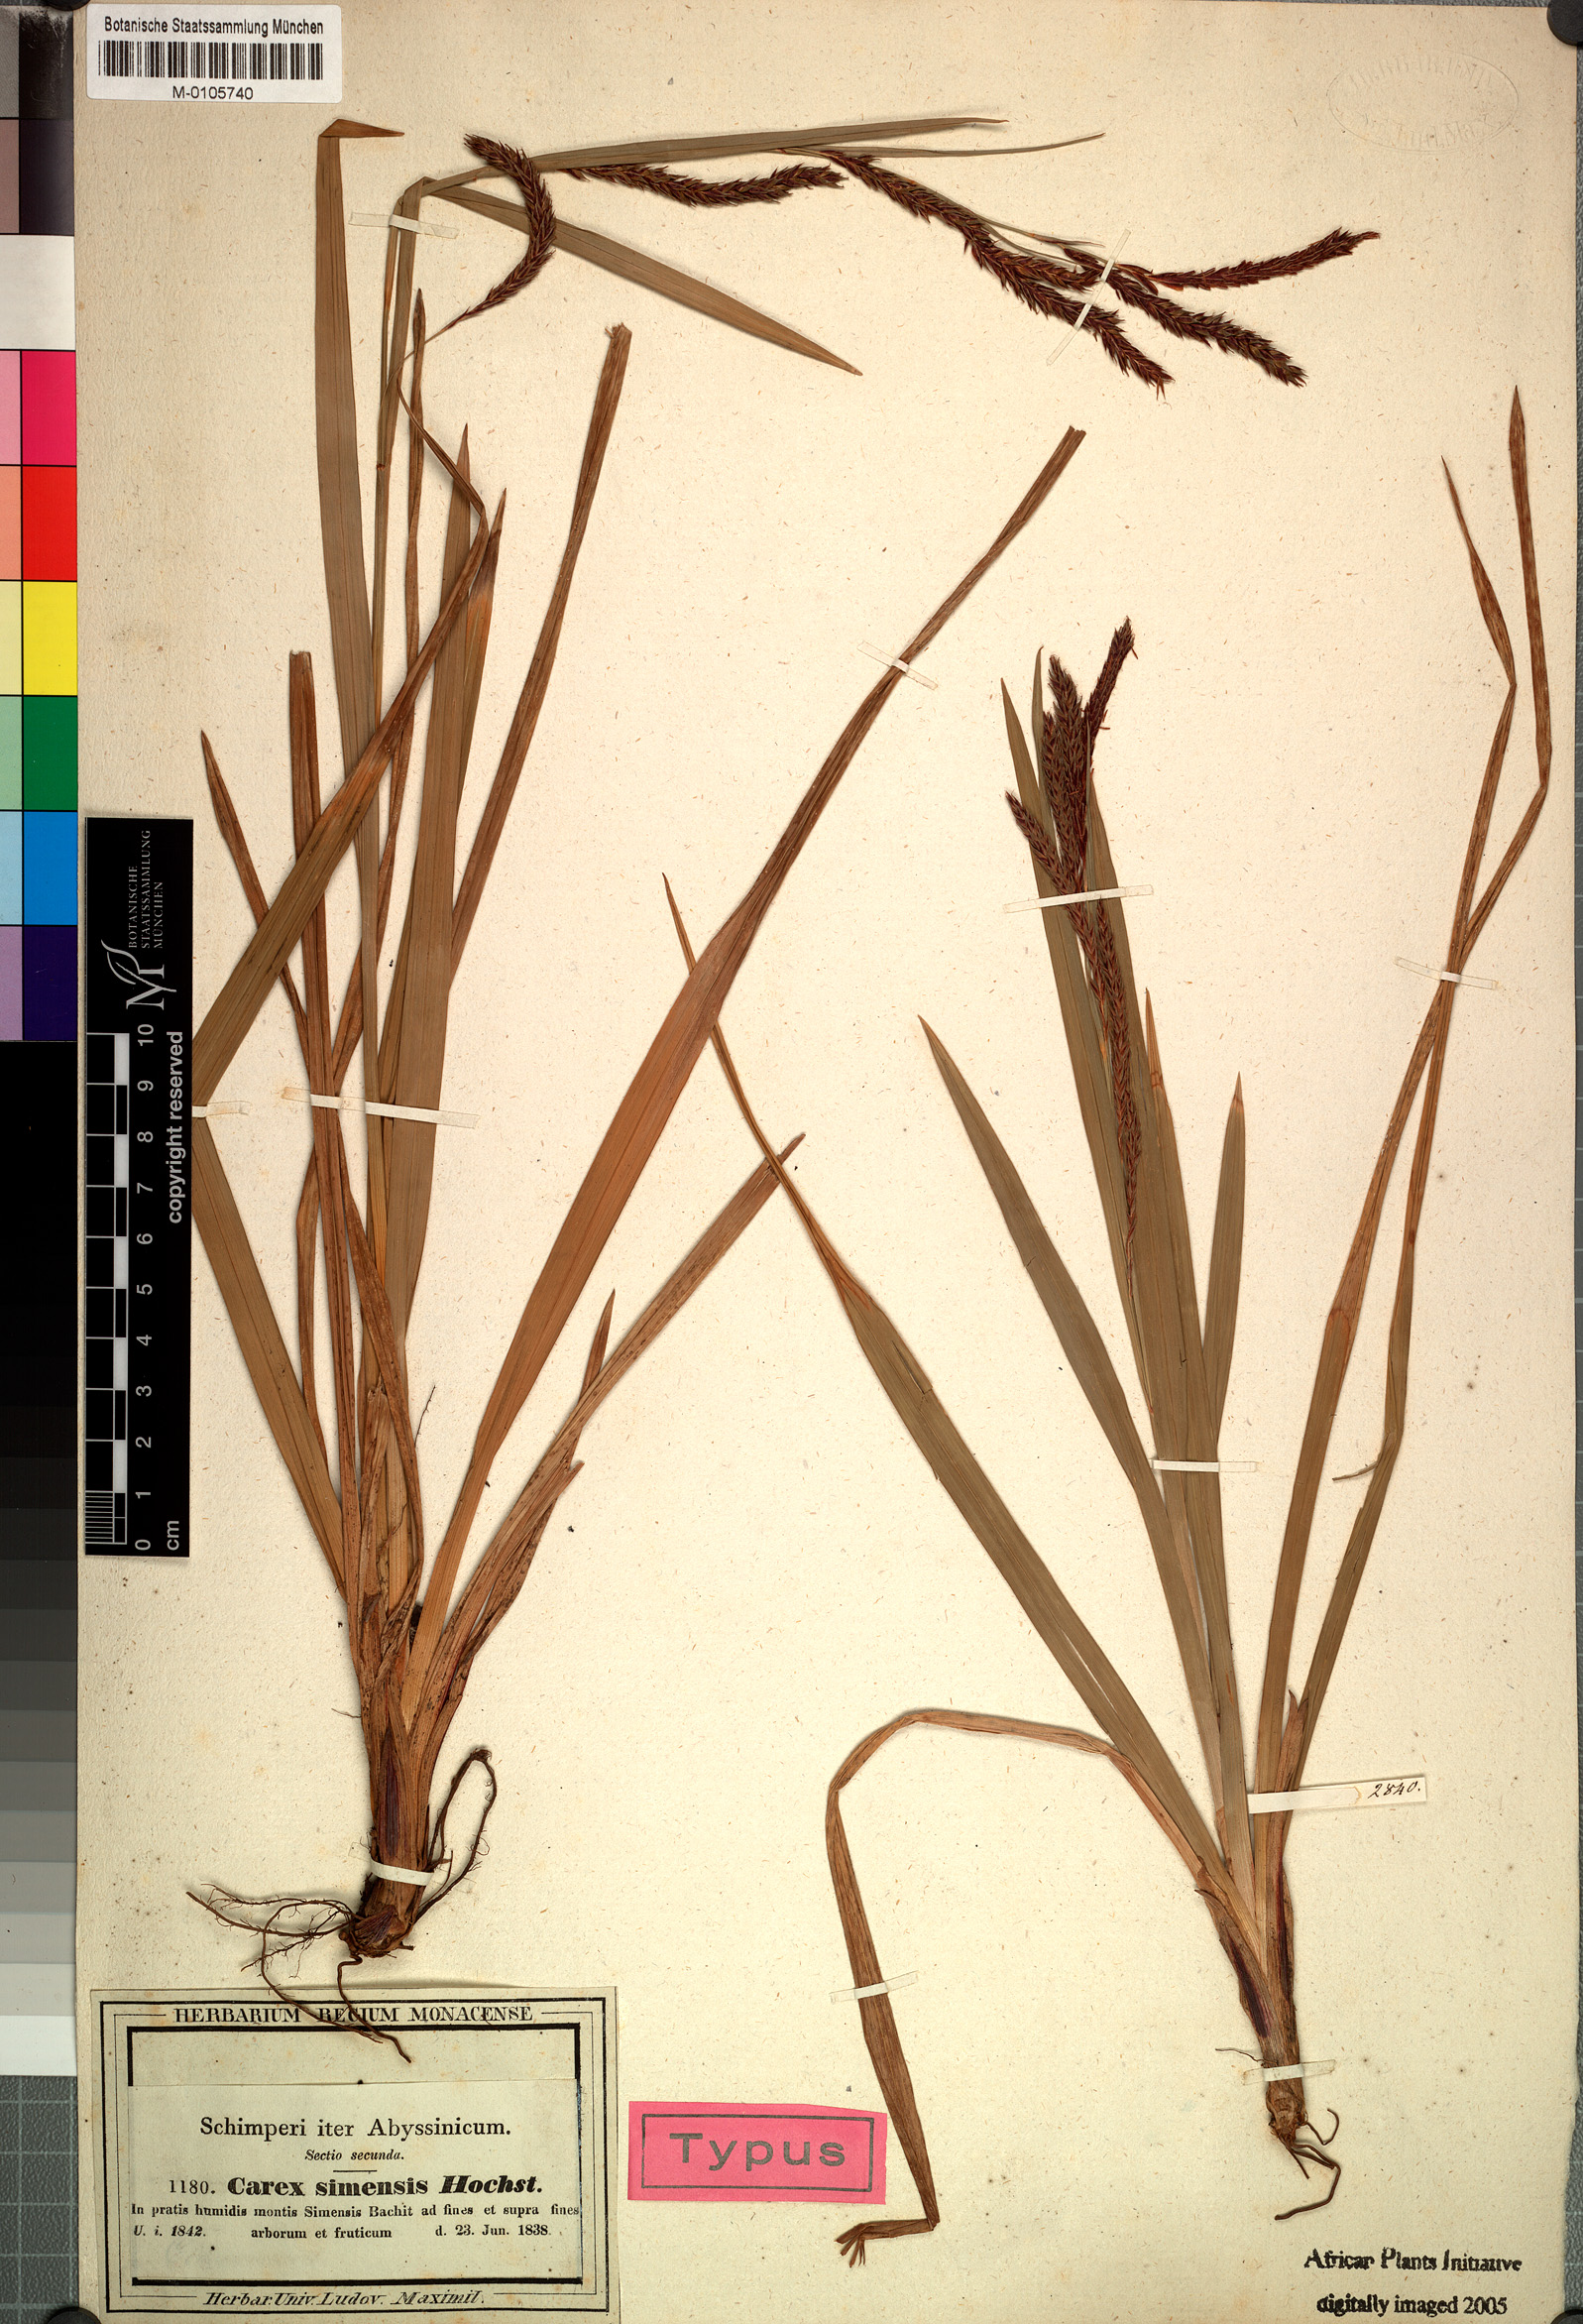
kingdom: Plantae
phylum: Tracheophyta
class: Liliopsida
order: Poales
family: Cyperaceae
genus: Carex
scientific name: Carex simensis
